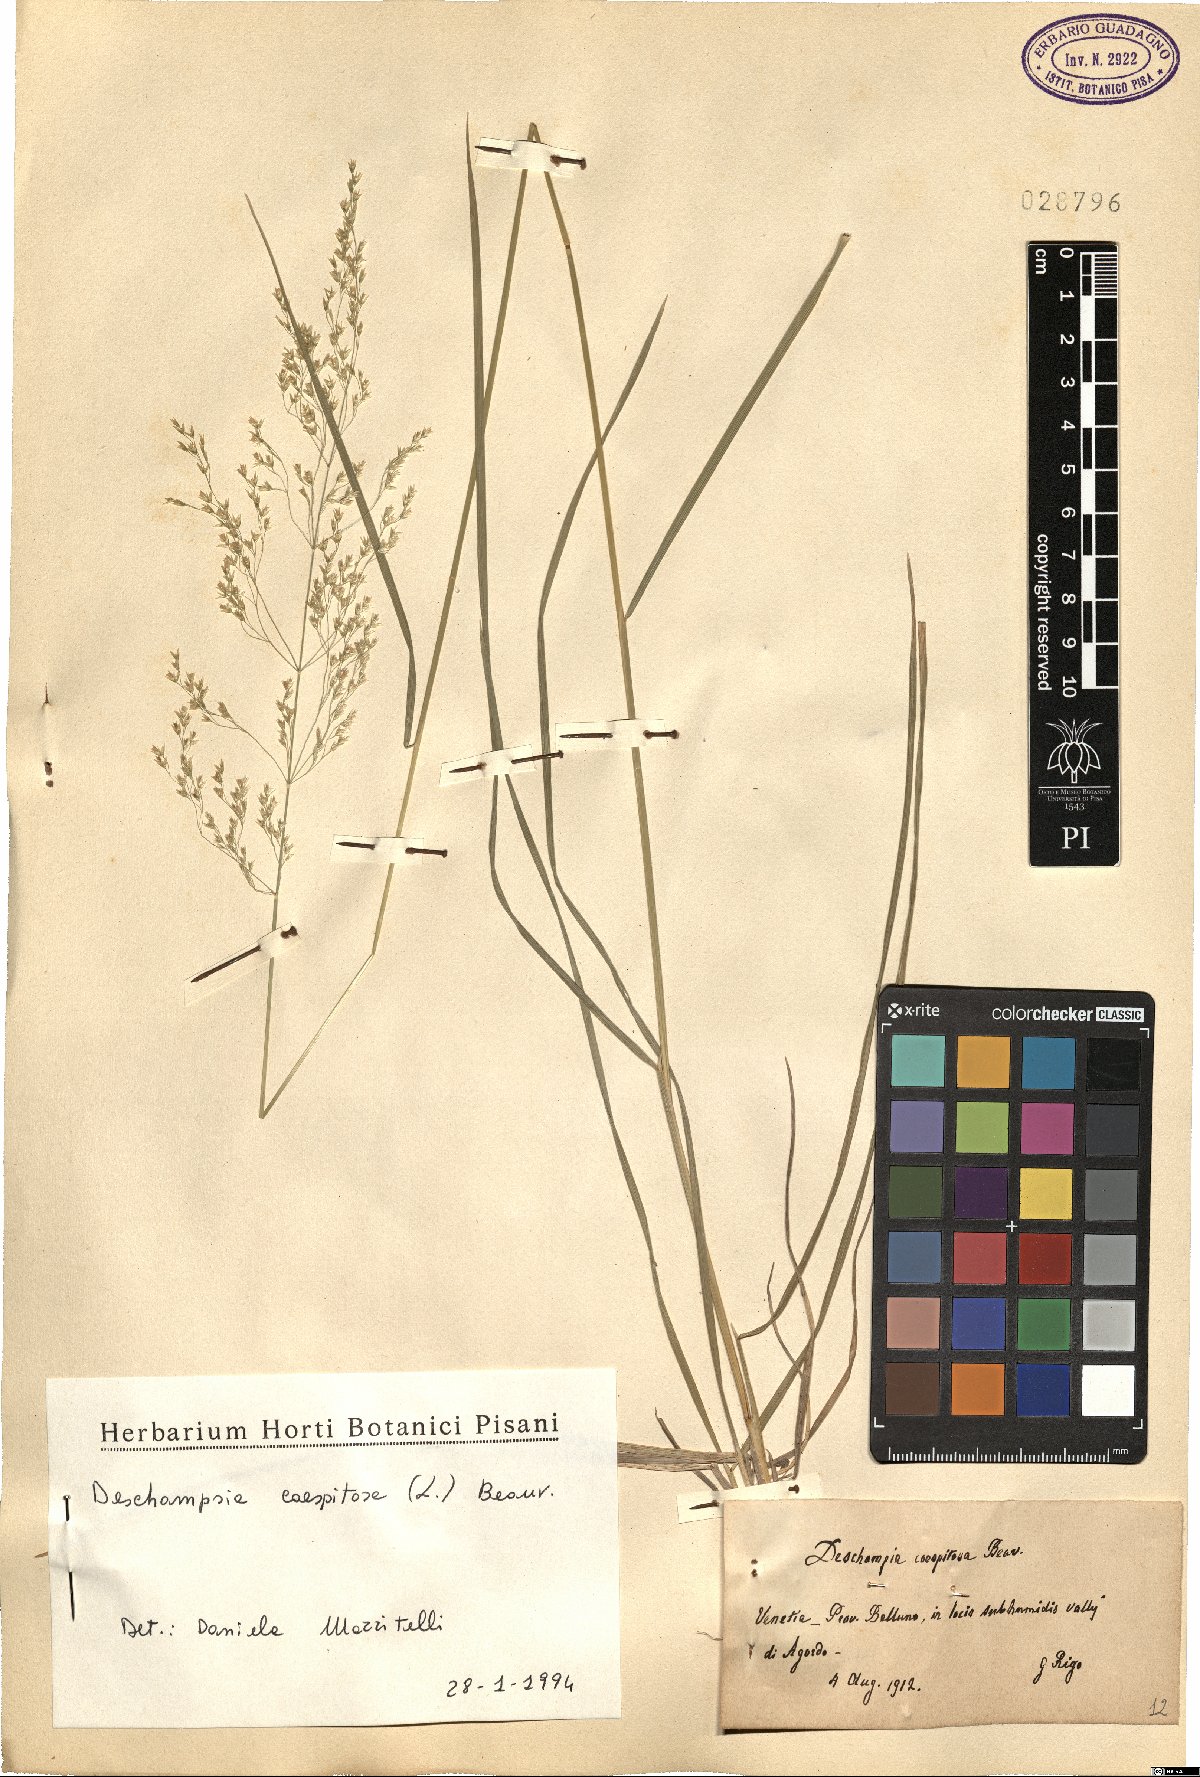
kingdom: Plantae
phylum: Tracheophyta
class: Liliopsida
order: Poales
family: Poaceae
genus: Deschampsia
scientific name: Deschampsia cespitosa
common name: Tufted hair-grass
